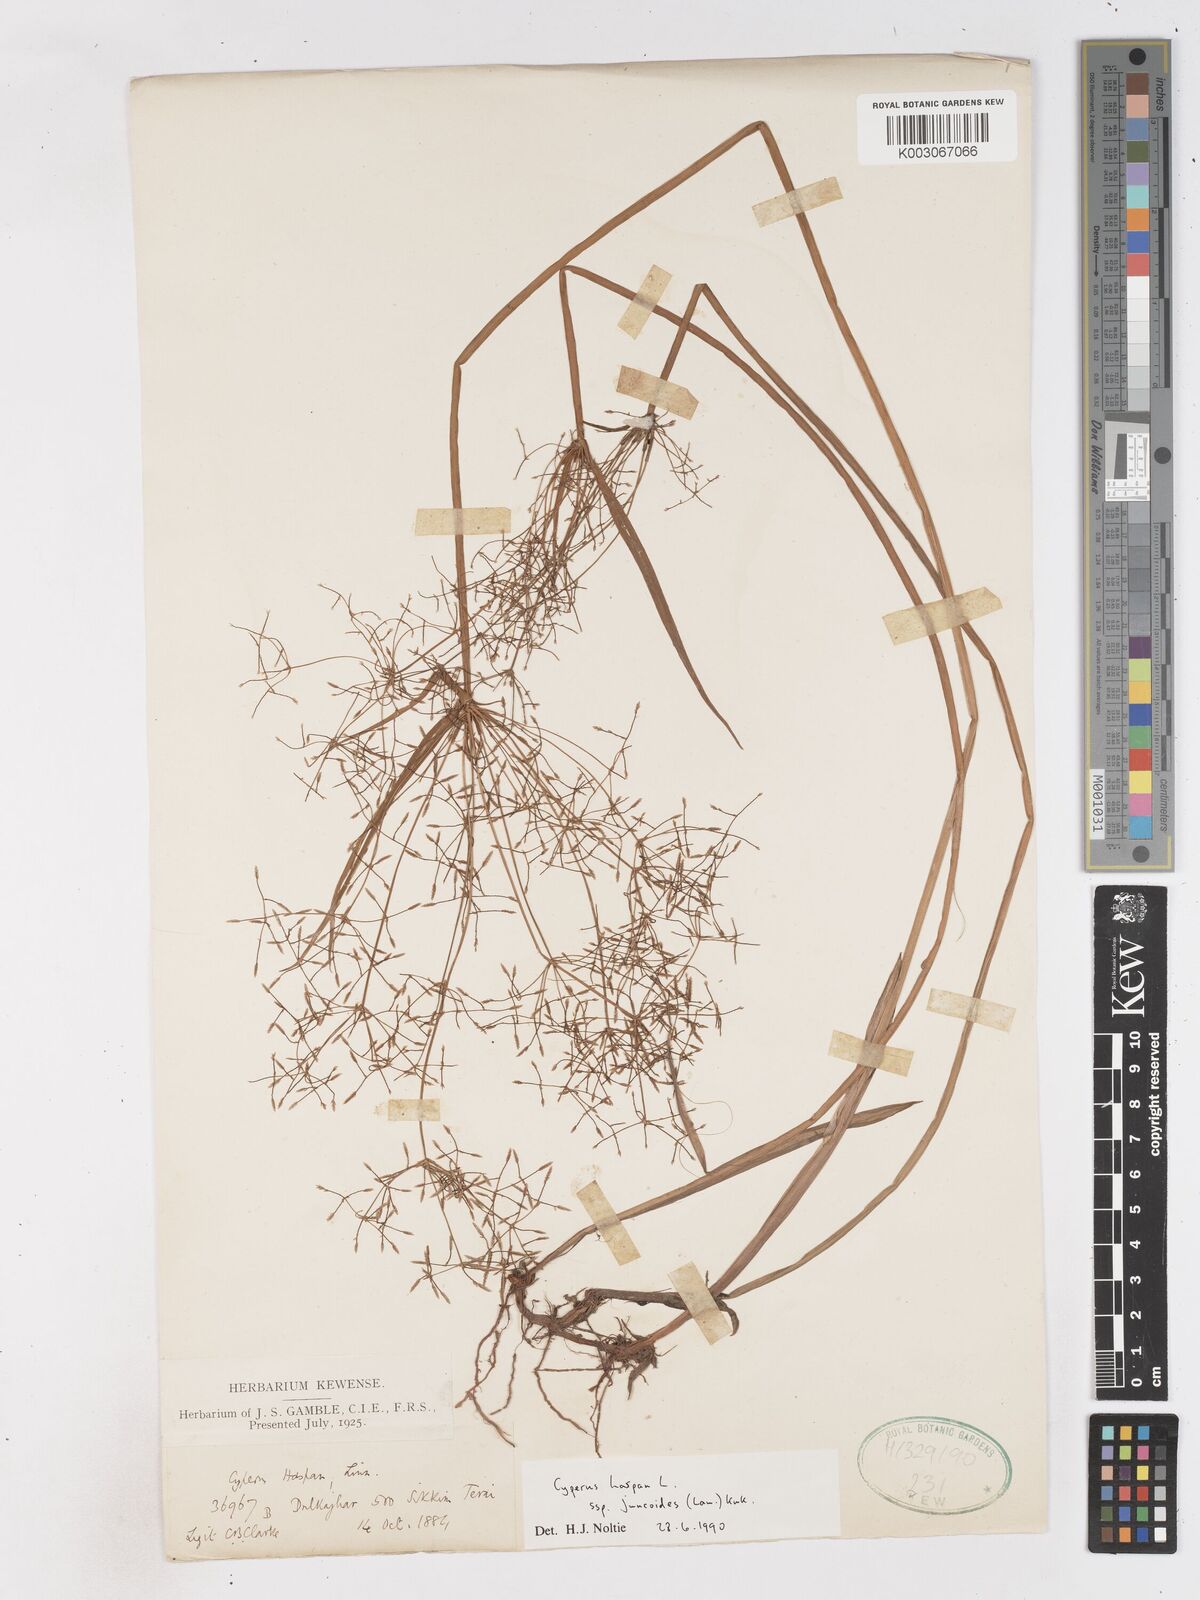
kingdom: Plantae
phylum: Tracheophyta
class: Liliopsida
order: Poales
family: Cyperaceae
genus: Cyperus
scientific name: Cyperus haspan
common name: Haspan flatsedge
